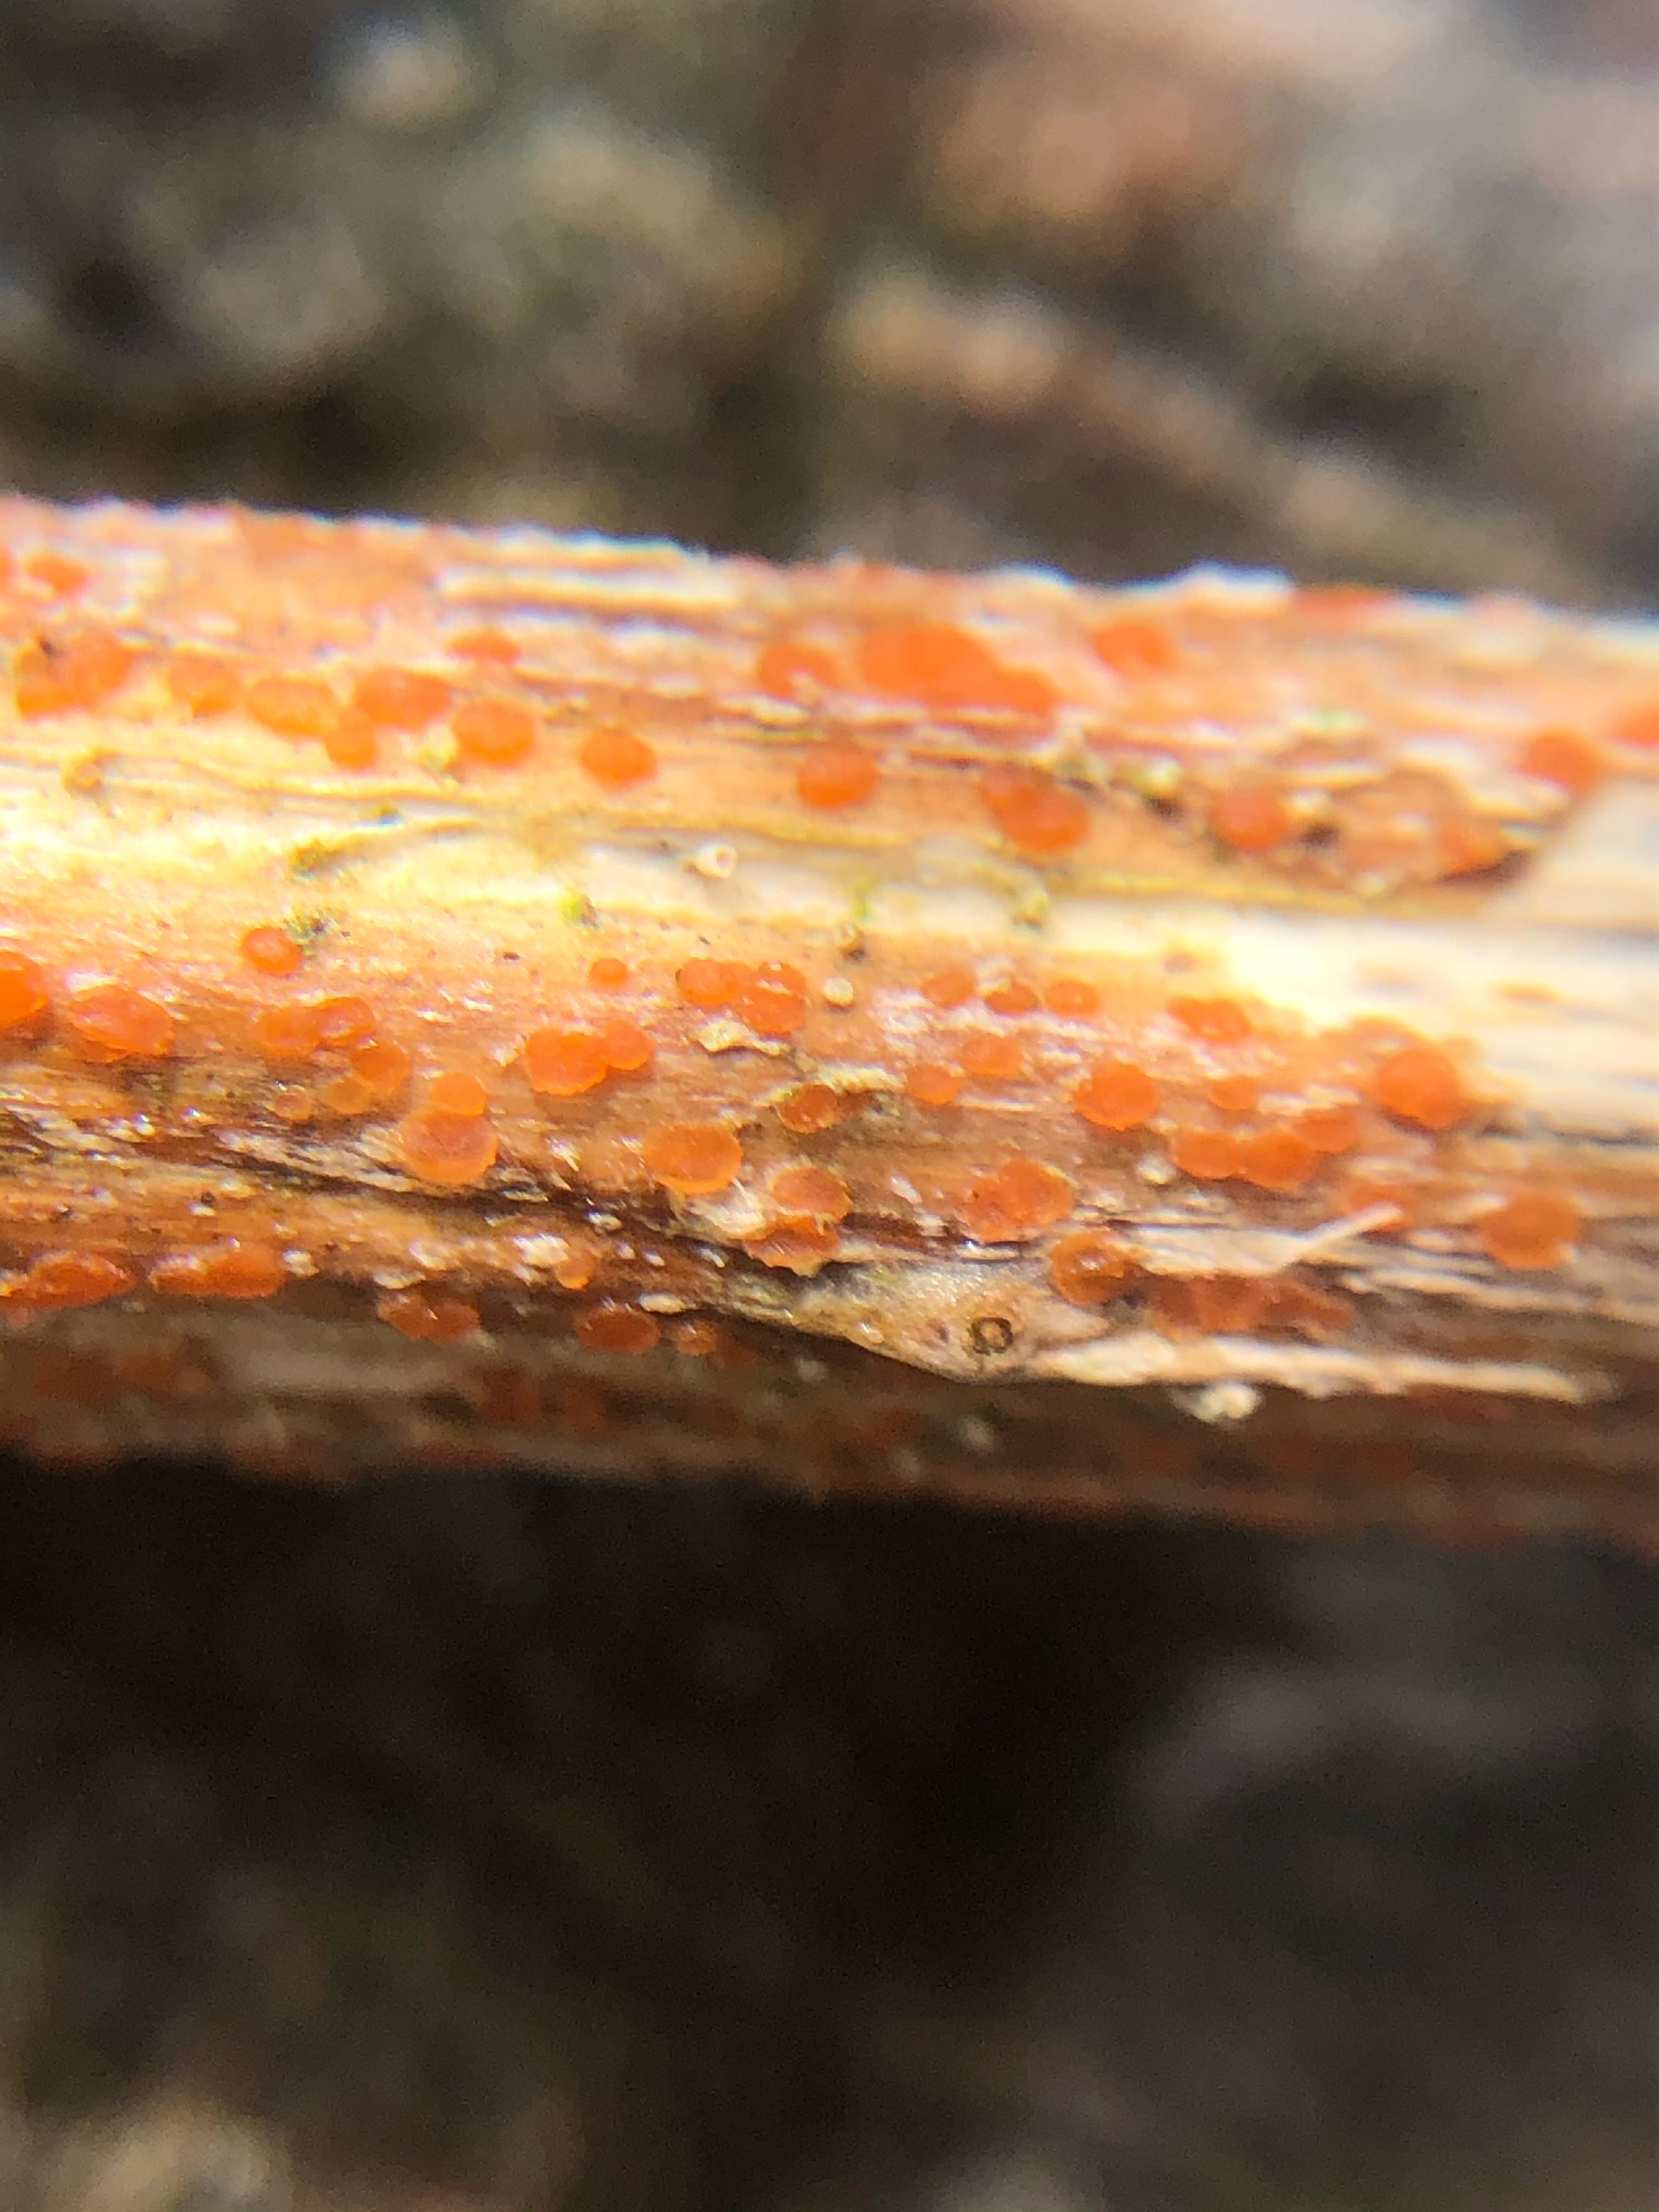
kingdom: Fungi
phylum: Ascomycota
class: Leotiomycetes
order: Helotiales
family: Calloriaceae
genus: Calloria
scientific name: Calloria urticae
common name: nælde-orangeskive
